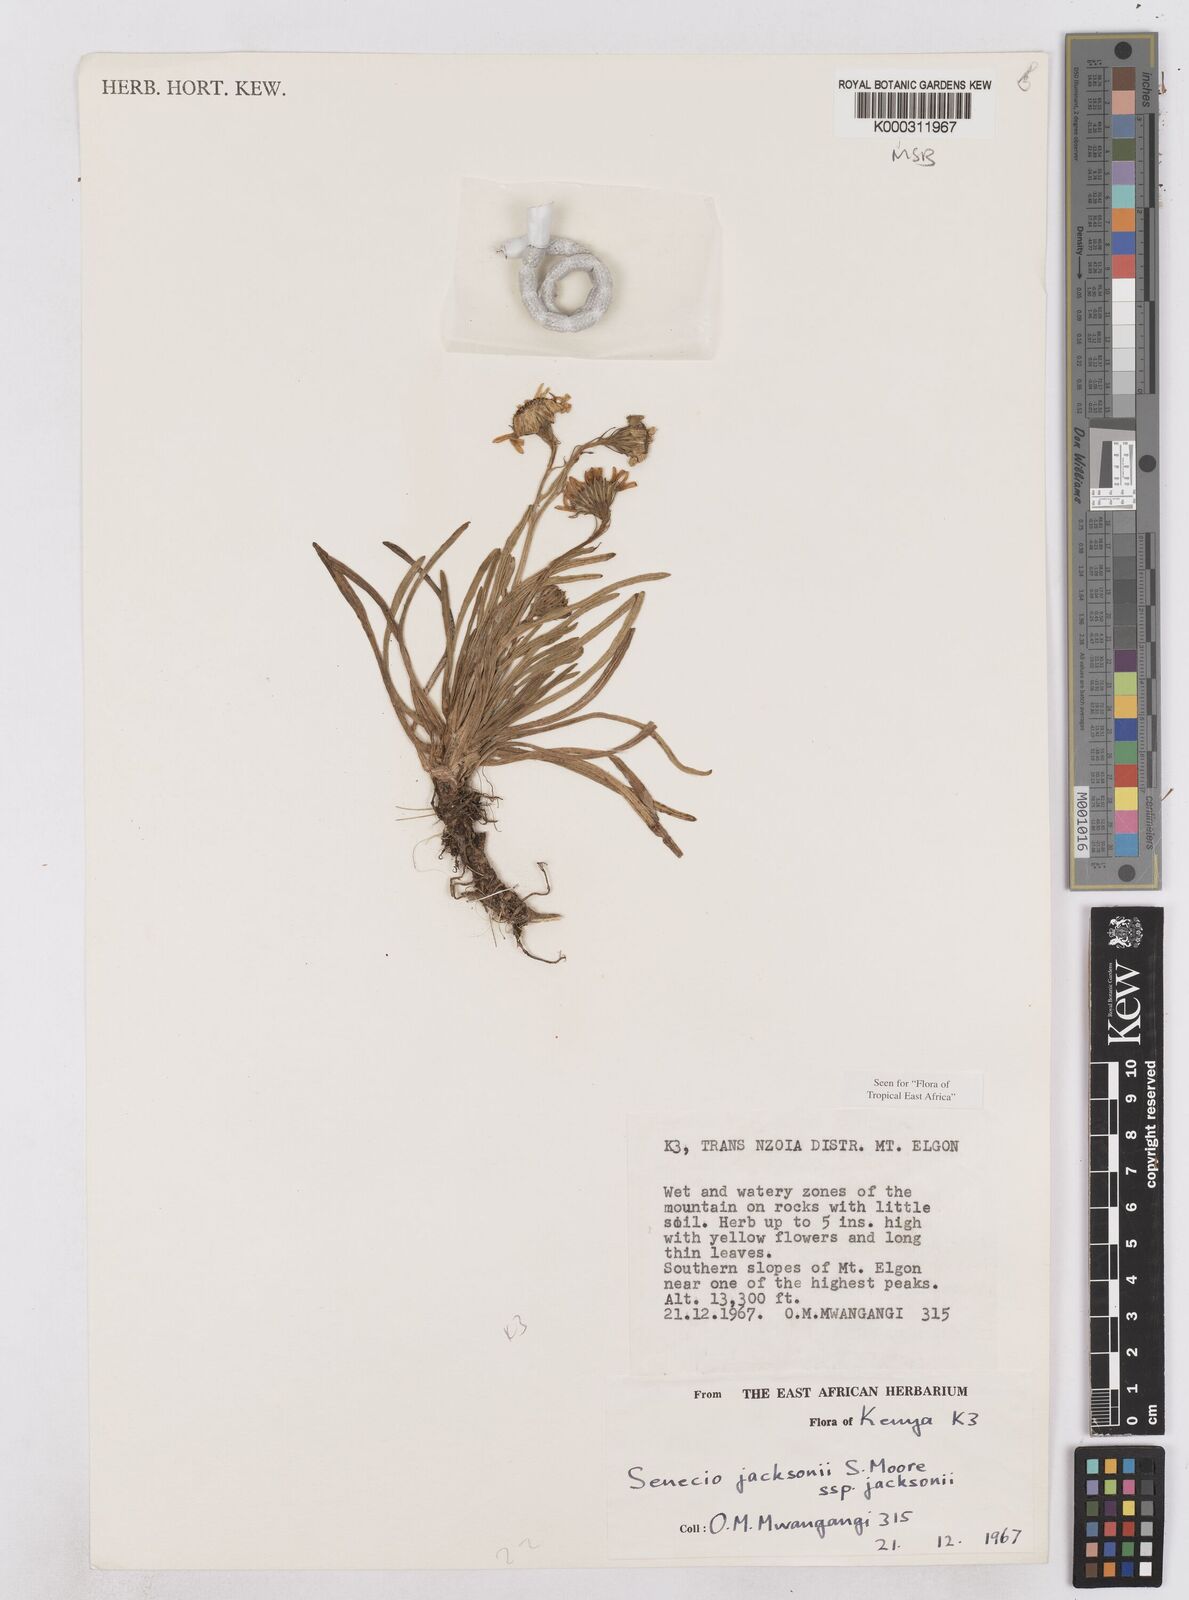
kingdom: Plantae
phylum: Tracheophyta
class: Magnoliopsida
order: Asterales
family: Asteraceae
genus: Senecio
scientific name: Senecio jacksonii
